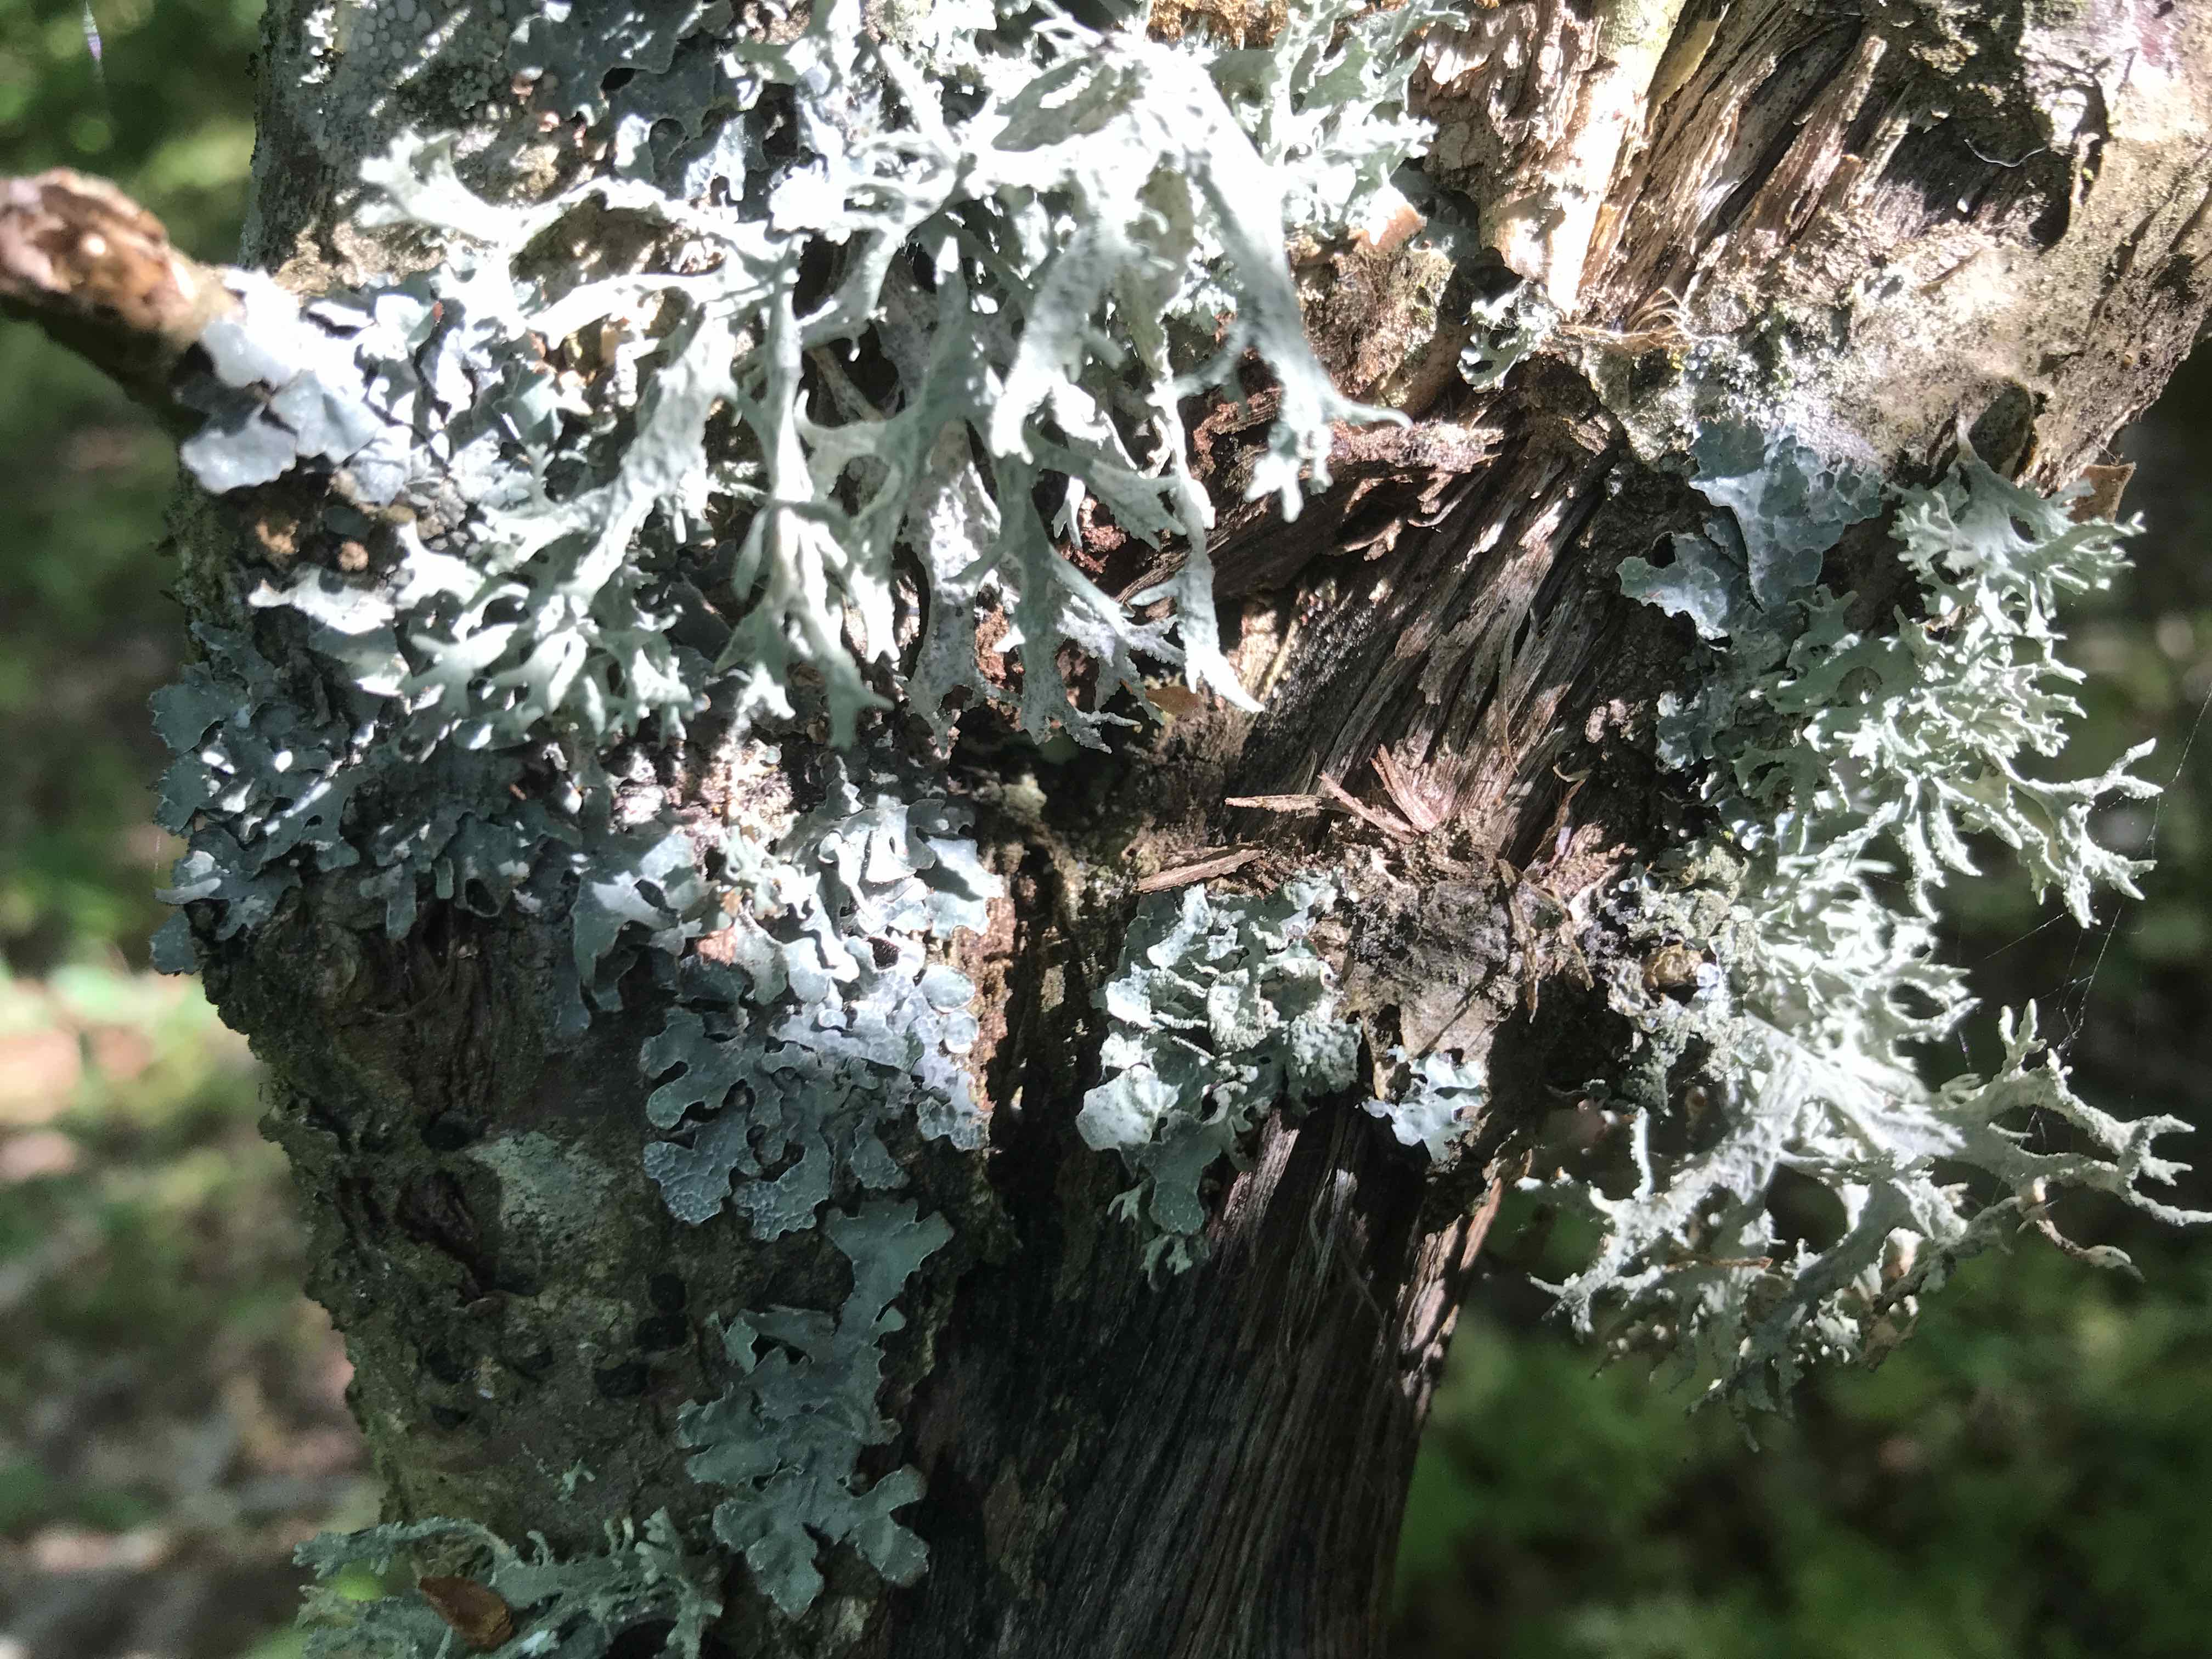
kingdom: Fungi
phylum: Ascomycota
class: Lecanoromycetes
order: Lecanorales
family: Parmeliaceae
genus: Evernia
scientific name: Evernia prunastri
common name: almindelig slåenlav
